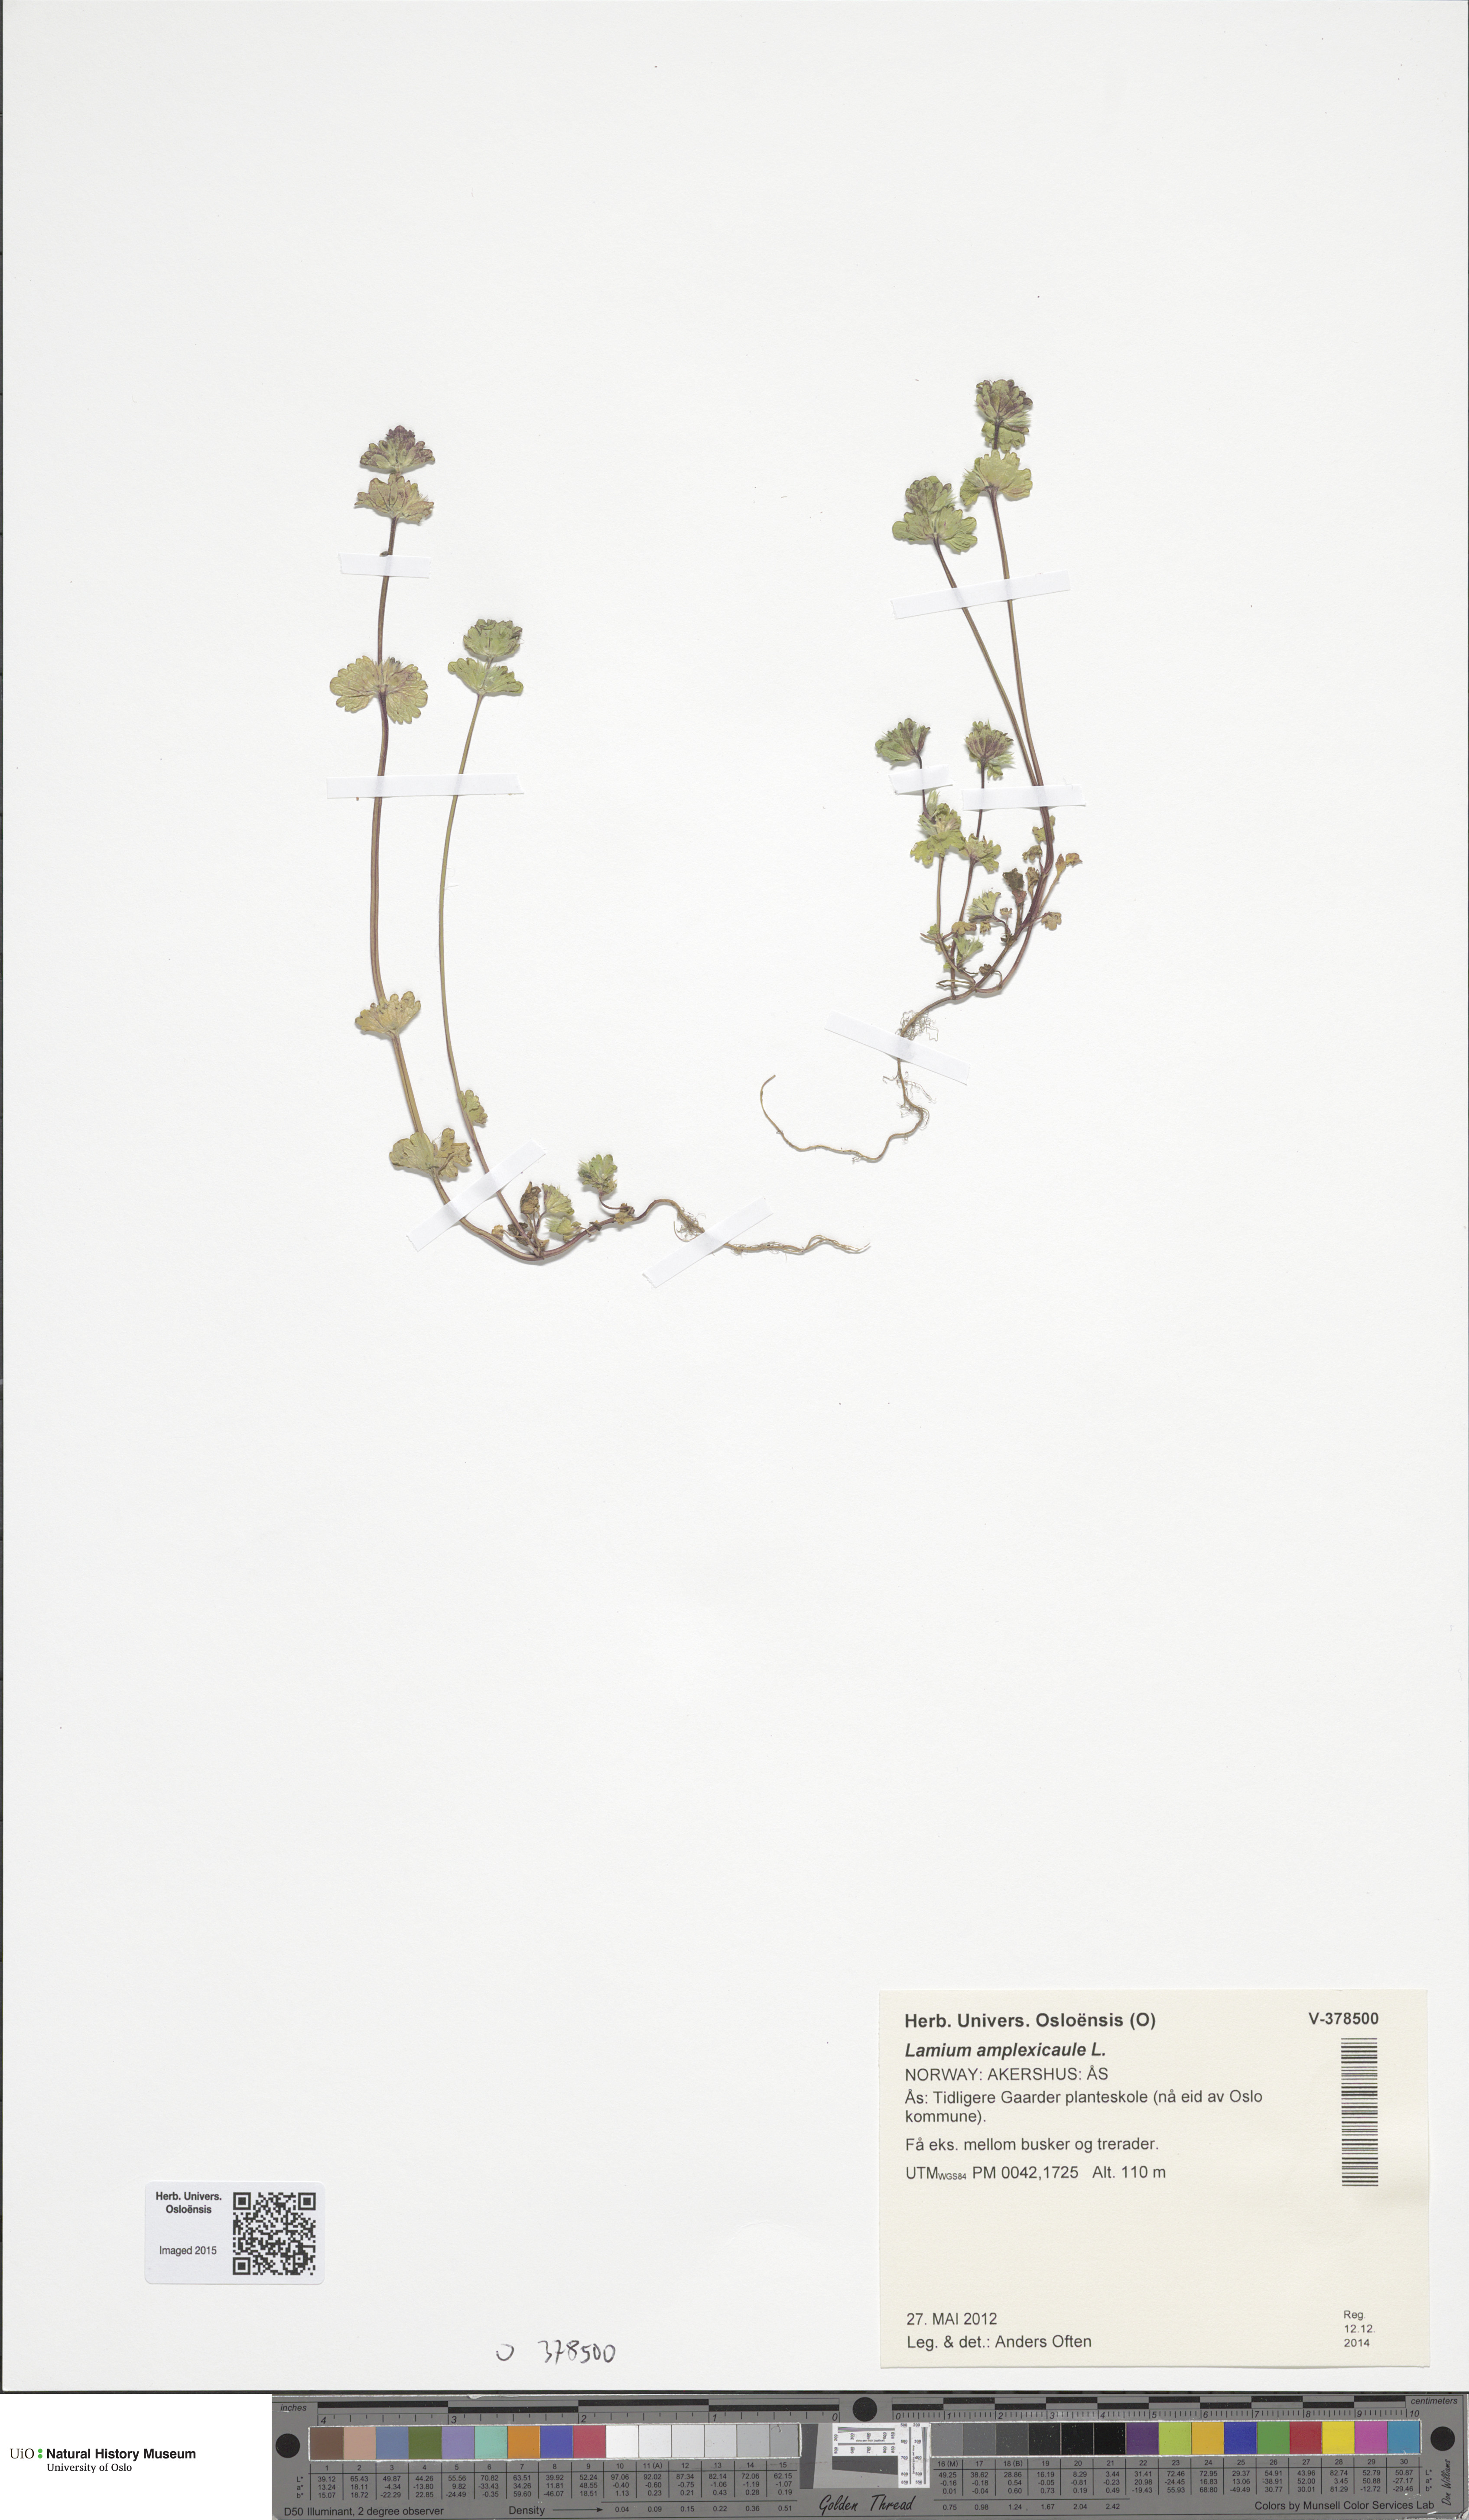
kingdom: Plantae
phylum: Tracheophyta
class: Magnoliopsida
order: Lamiales
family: Lamiaceae
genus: Lamium
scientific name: Lamium amplexicaule
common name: Henbit dead-nettle
